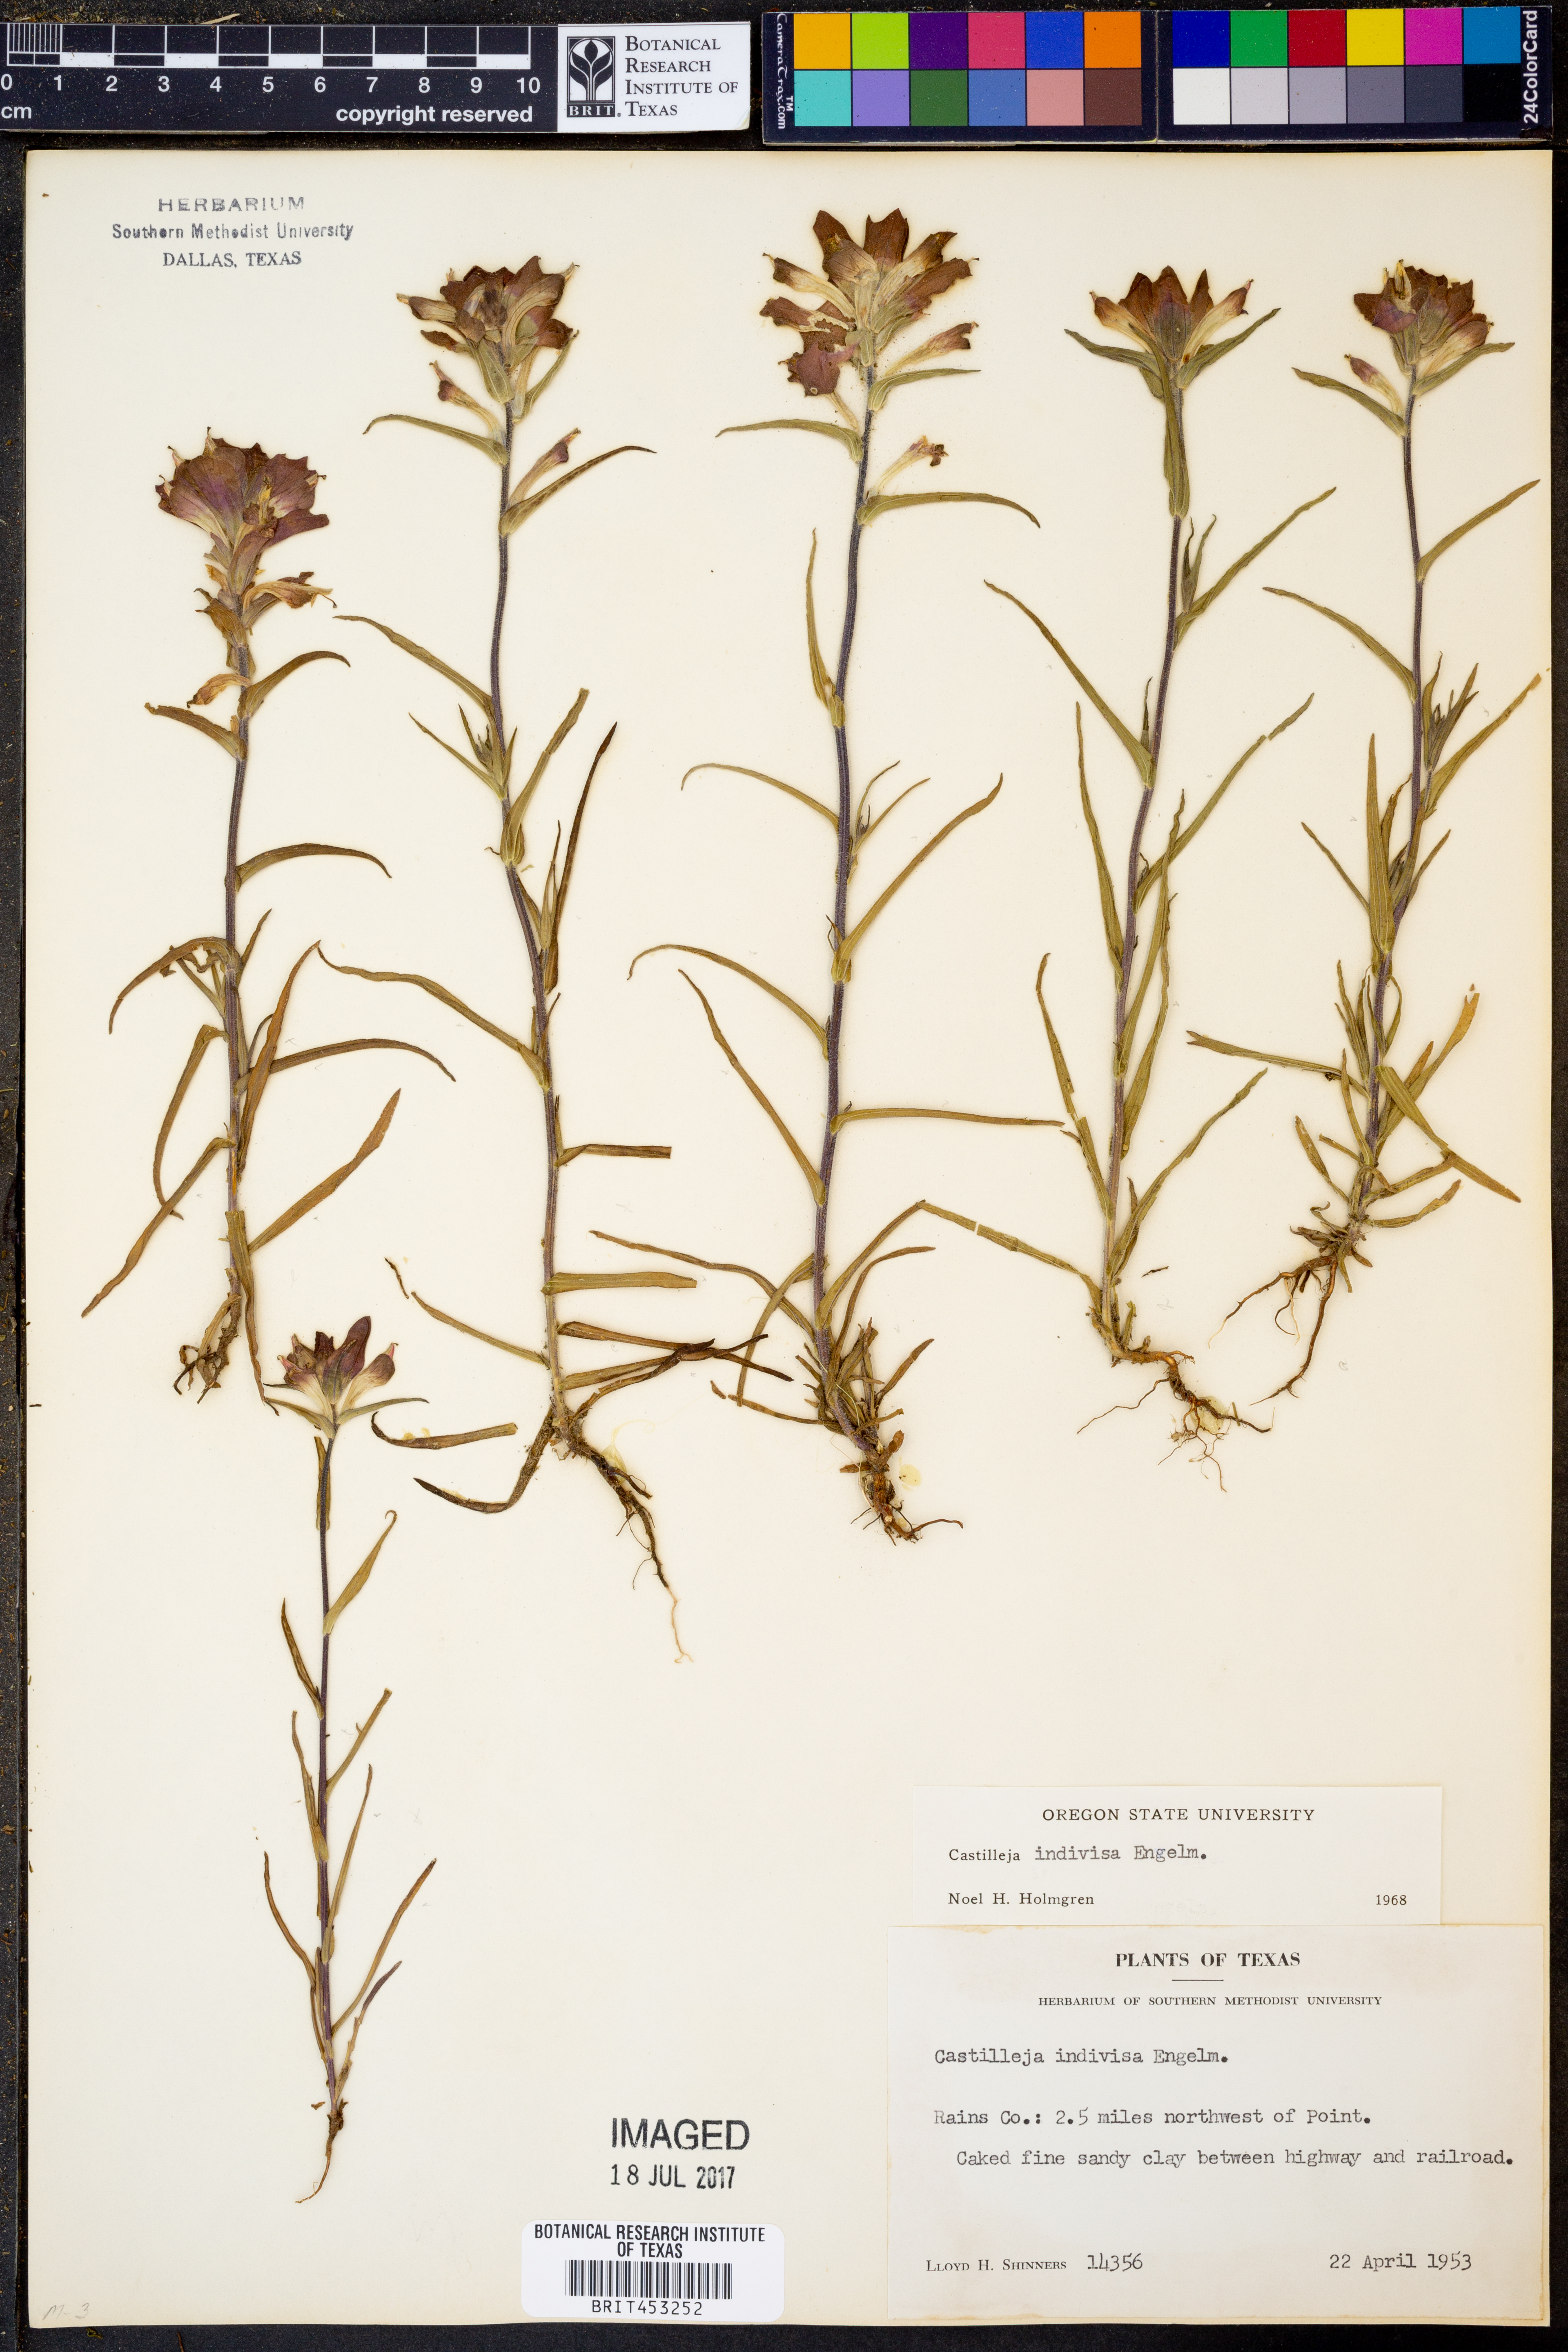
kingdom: Plantae
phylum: Tracheophyta
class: Magnoliopsida
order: Lamiales
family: Orobanchaceae
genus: Castilleja
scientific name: Castilleja indivisa
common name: Texas paintbrush
